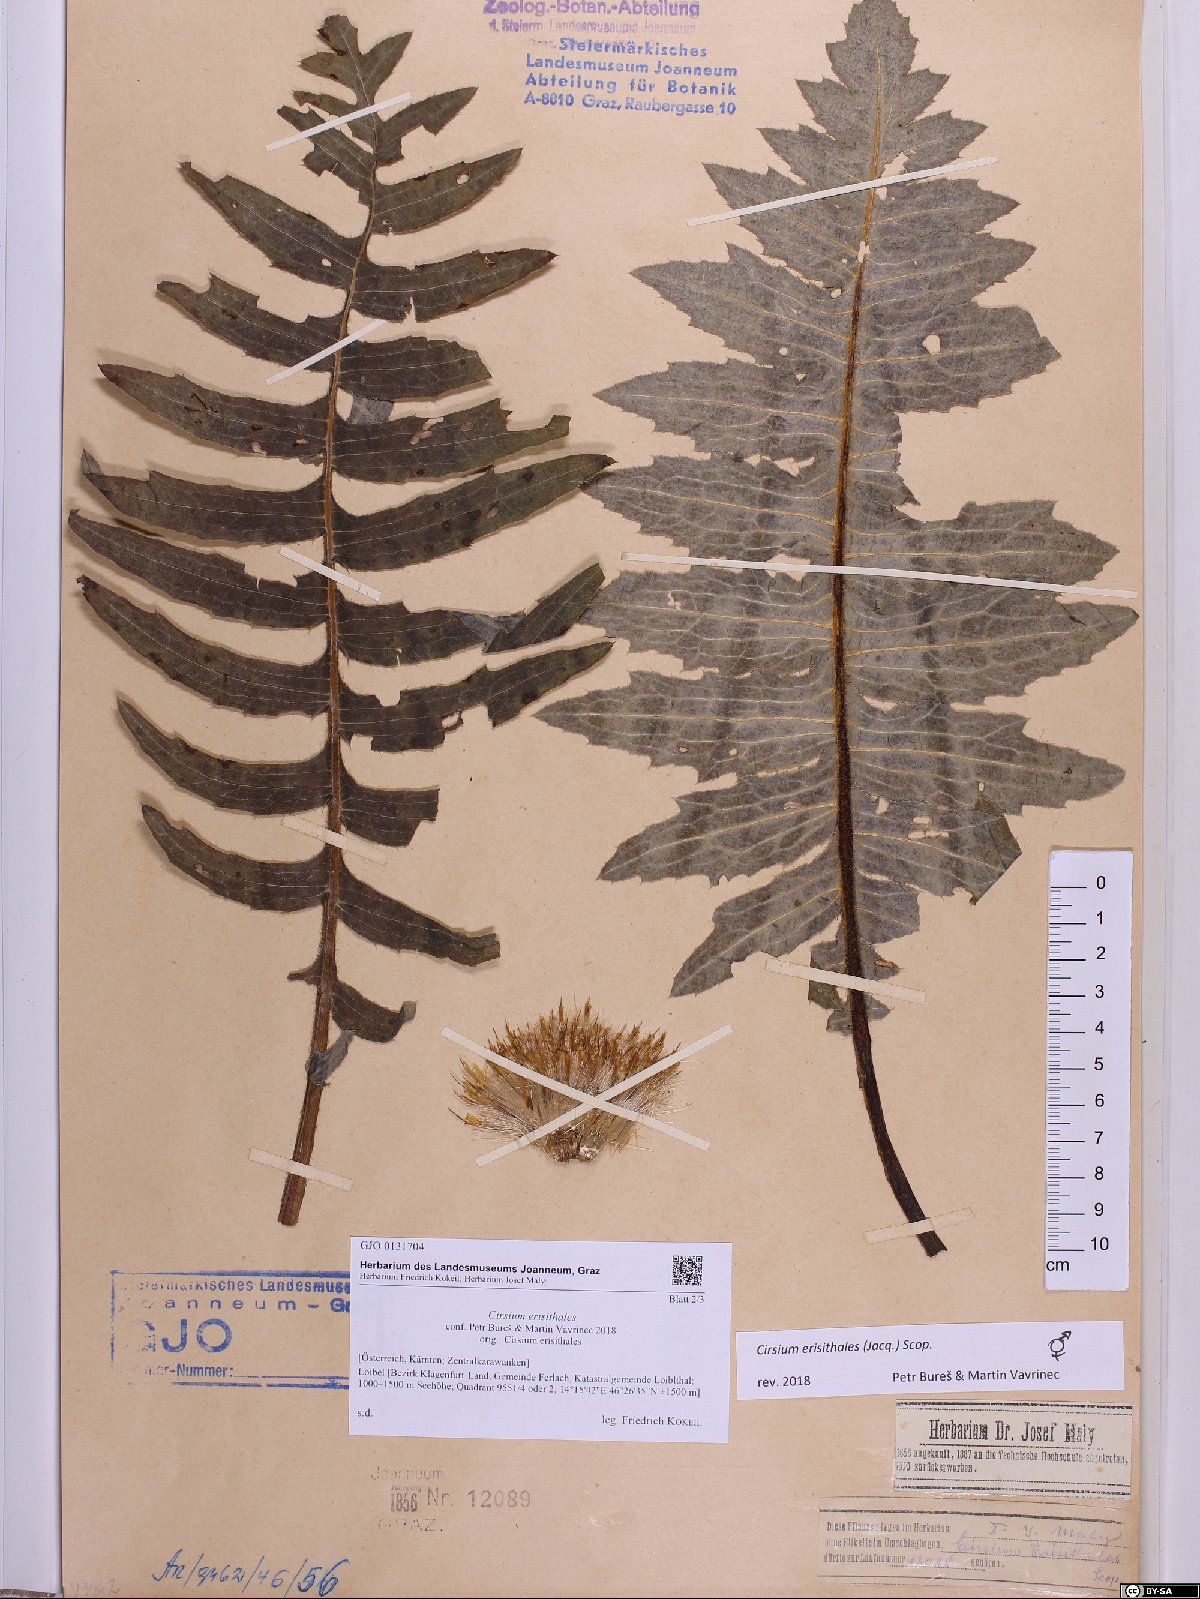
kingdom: Plantae
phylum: Tracheophyta
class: Magnoliopsida
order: Asterales
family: Asteraceae
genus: Cirsium
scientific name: Cirsium erisithales
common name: Yellow thistle
